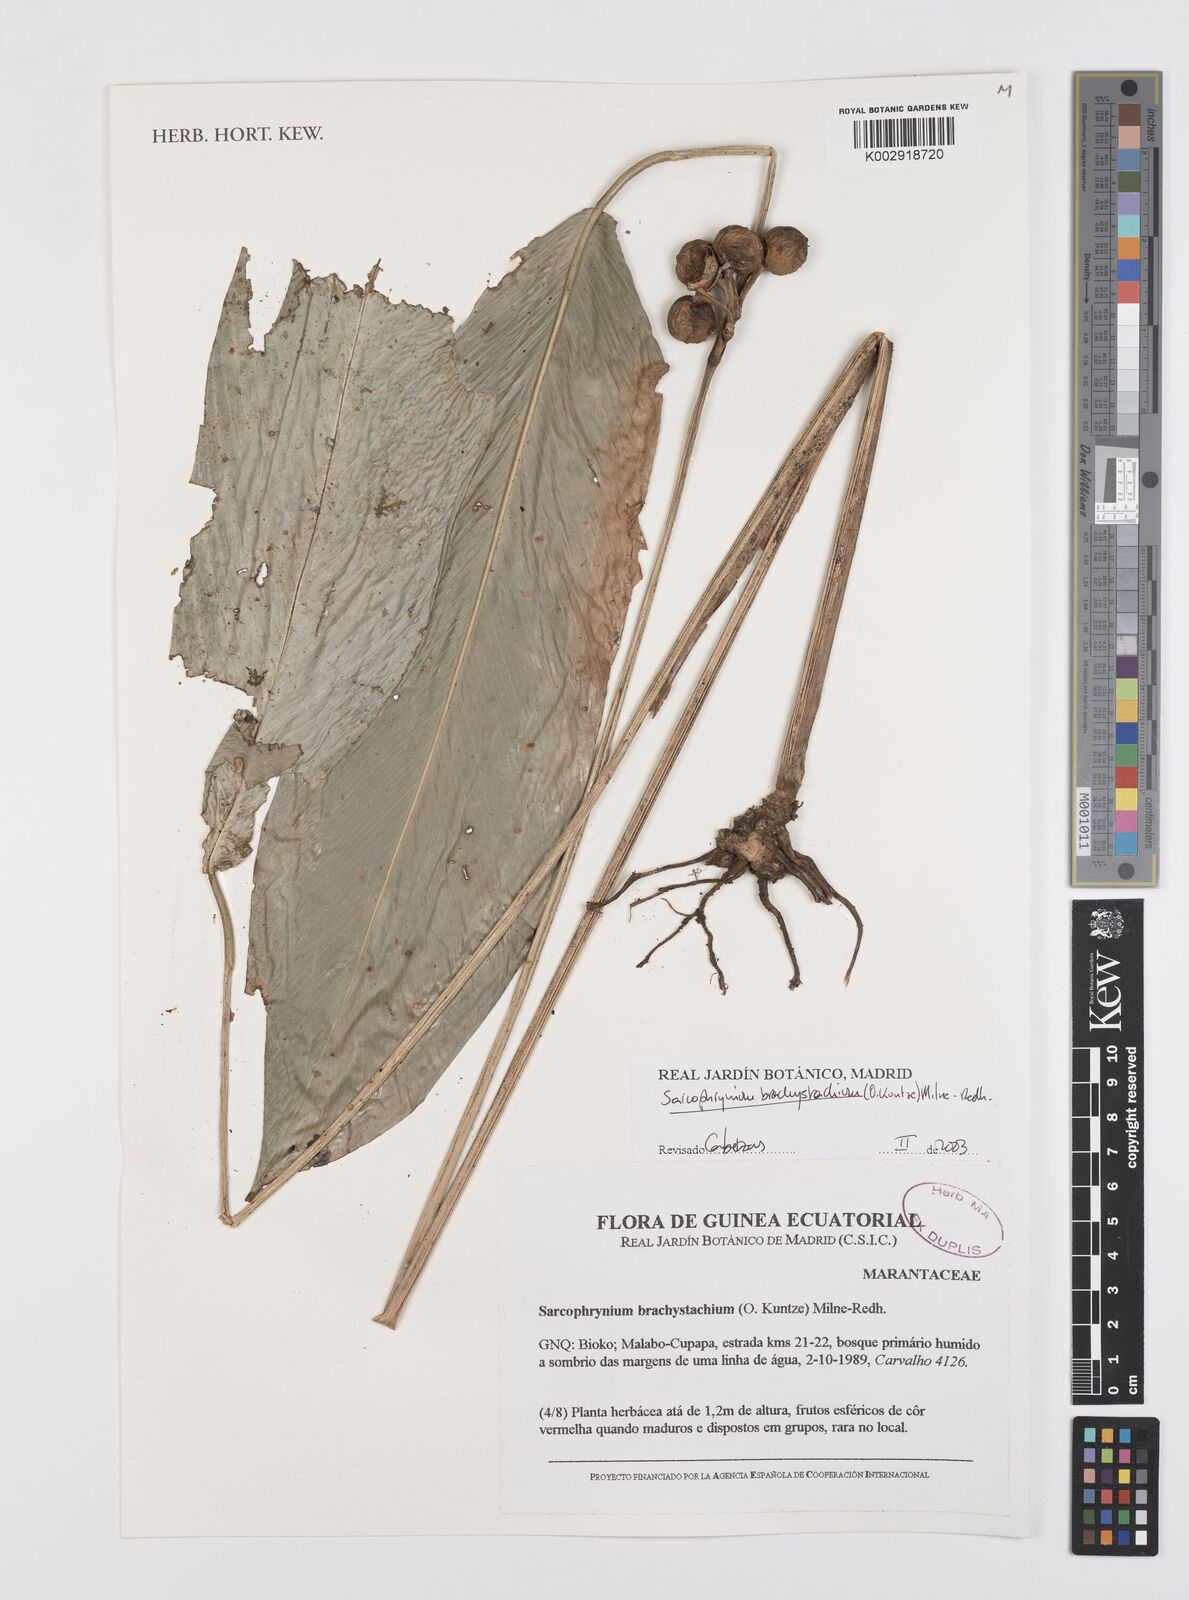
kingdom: Plantae
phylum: Tracheophyta
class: Liliopsida
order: Zingiberales
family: Marantaceae
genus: Sarcophrynium
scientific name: Sarcophrynium brachystachyum
